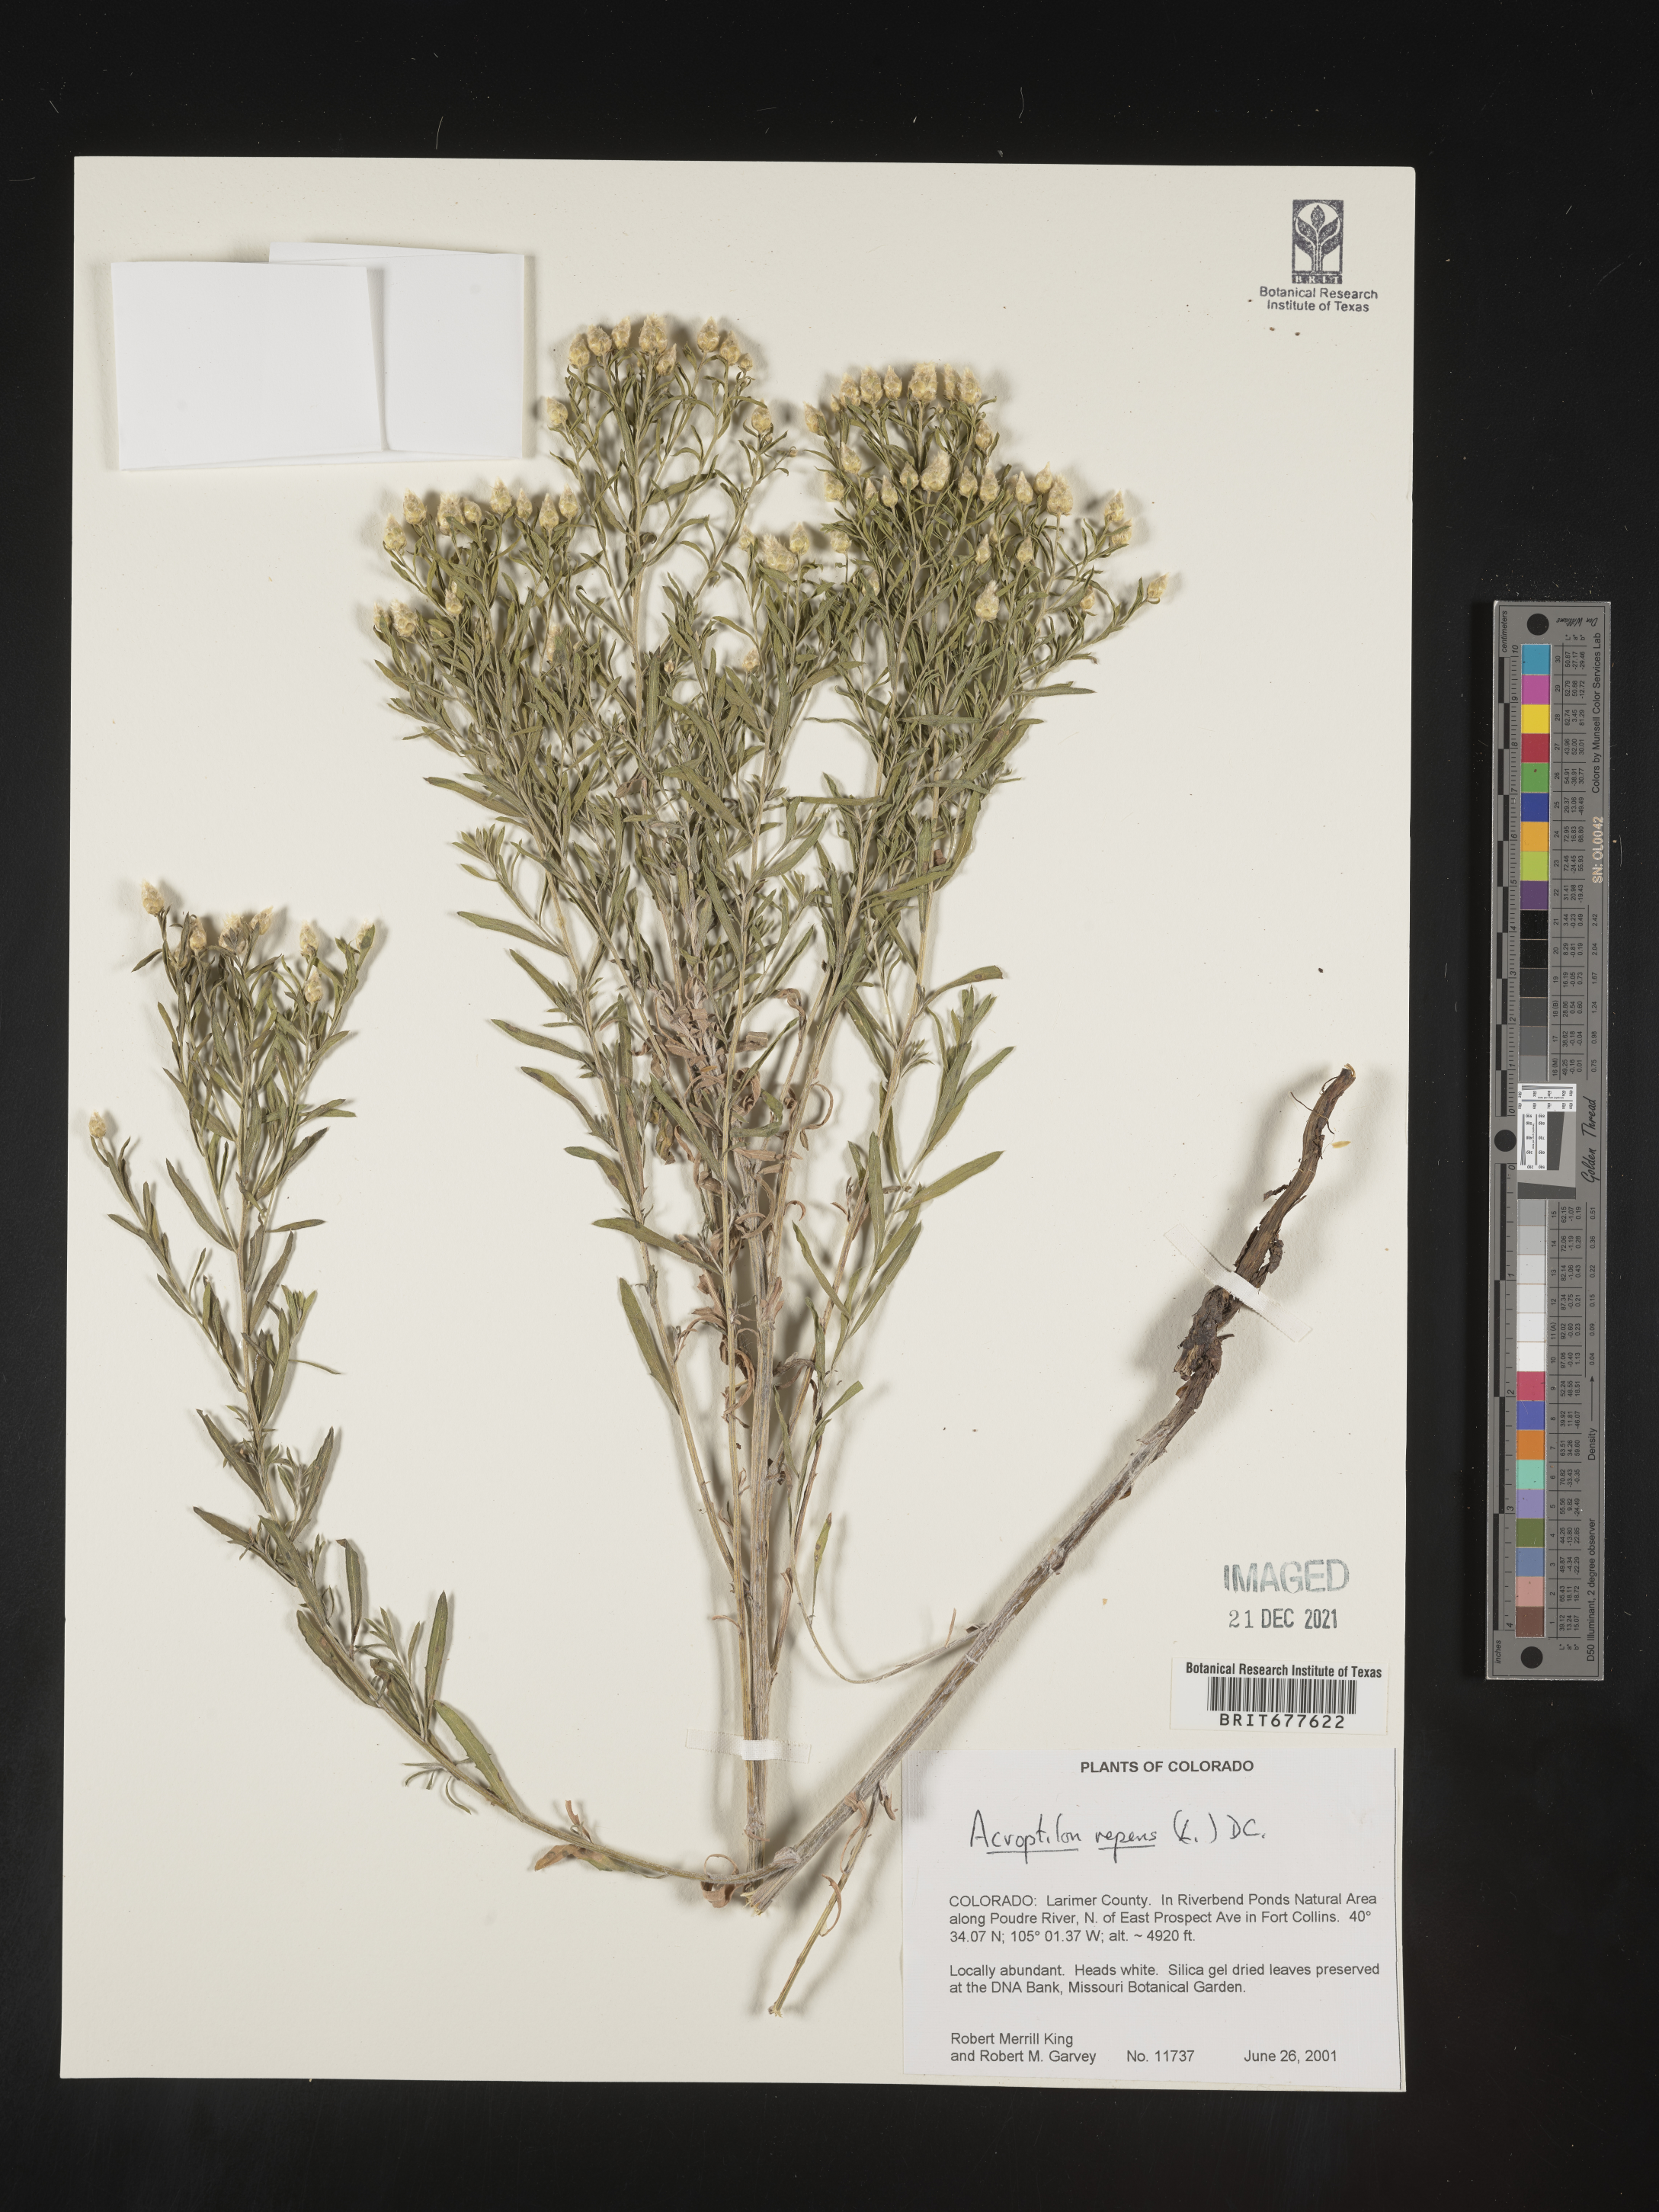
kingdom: Plantae
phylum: Tracheophyta
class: Magnoliopsida
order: Asterales
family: Asteraceae
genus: Leuzea
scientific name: Leuzea repens
